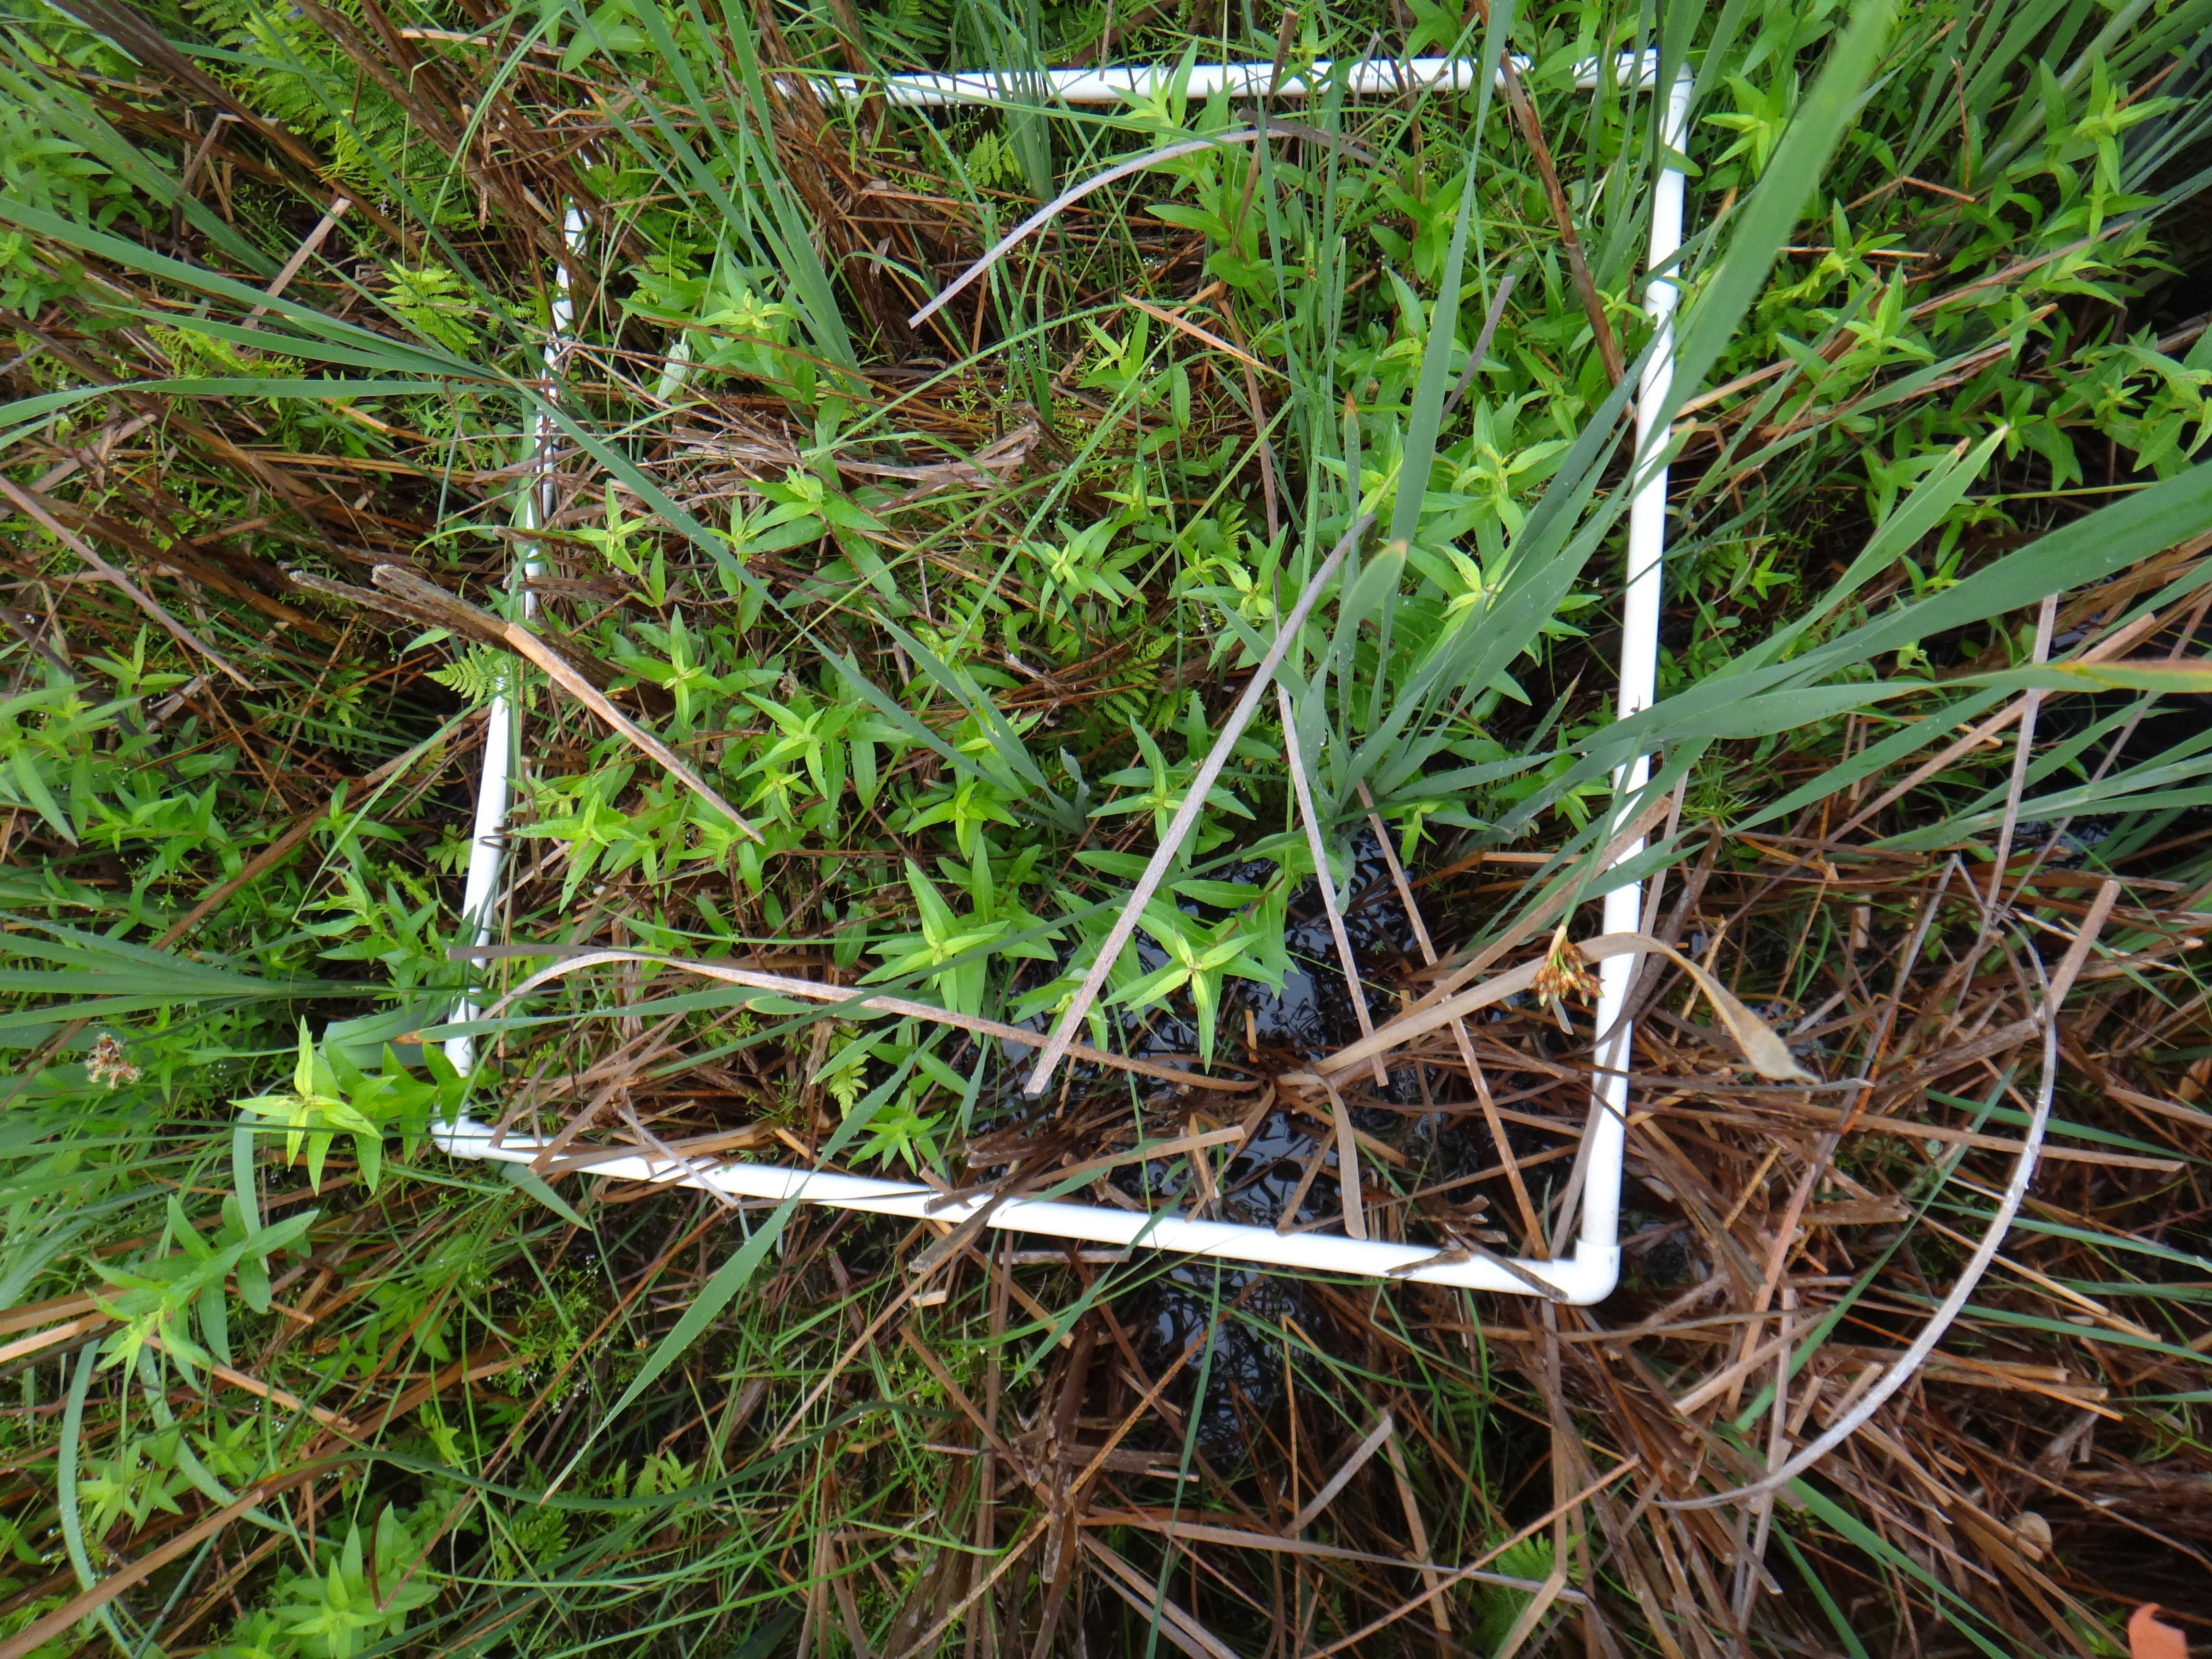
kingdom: Plantae
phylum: Tracheophyta
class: Liliopsida
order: Poales
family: Typhaceae
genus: Typha
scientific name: Typha angustifolia
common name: Lesser bulrush
